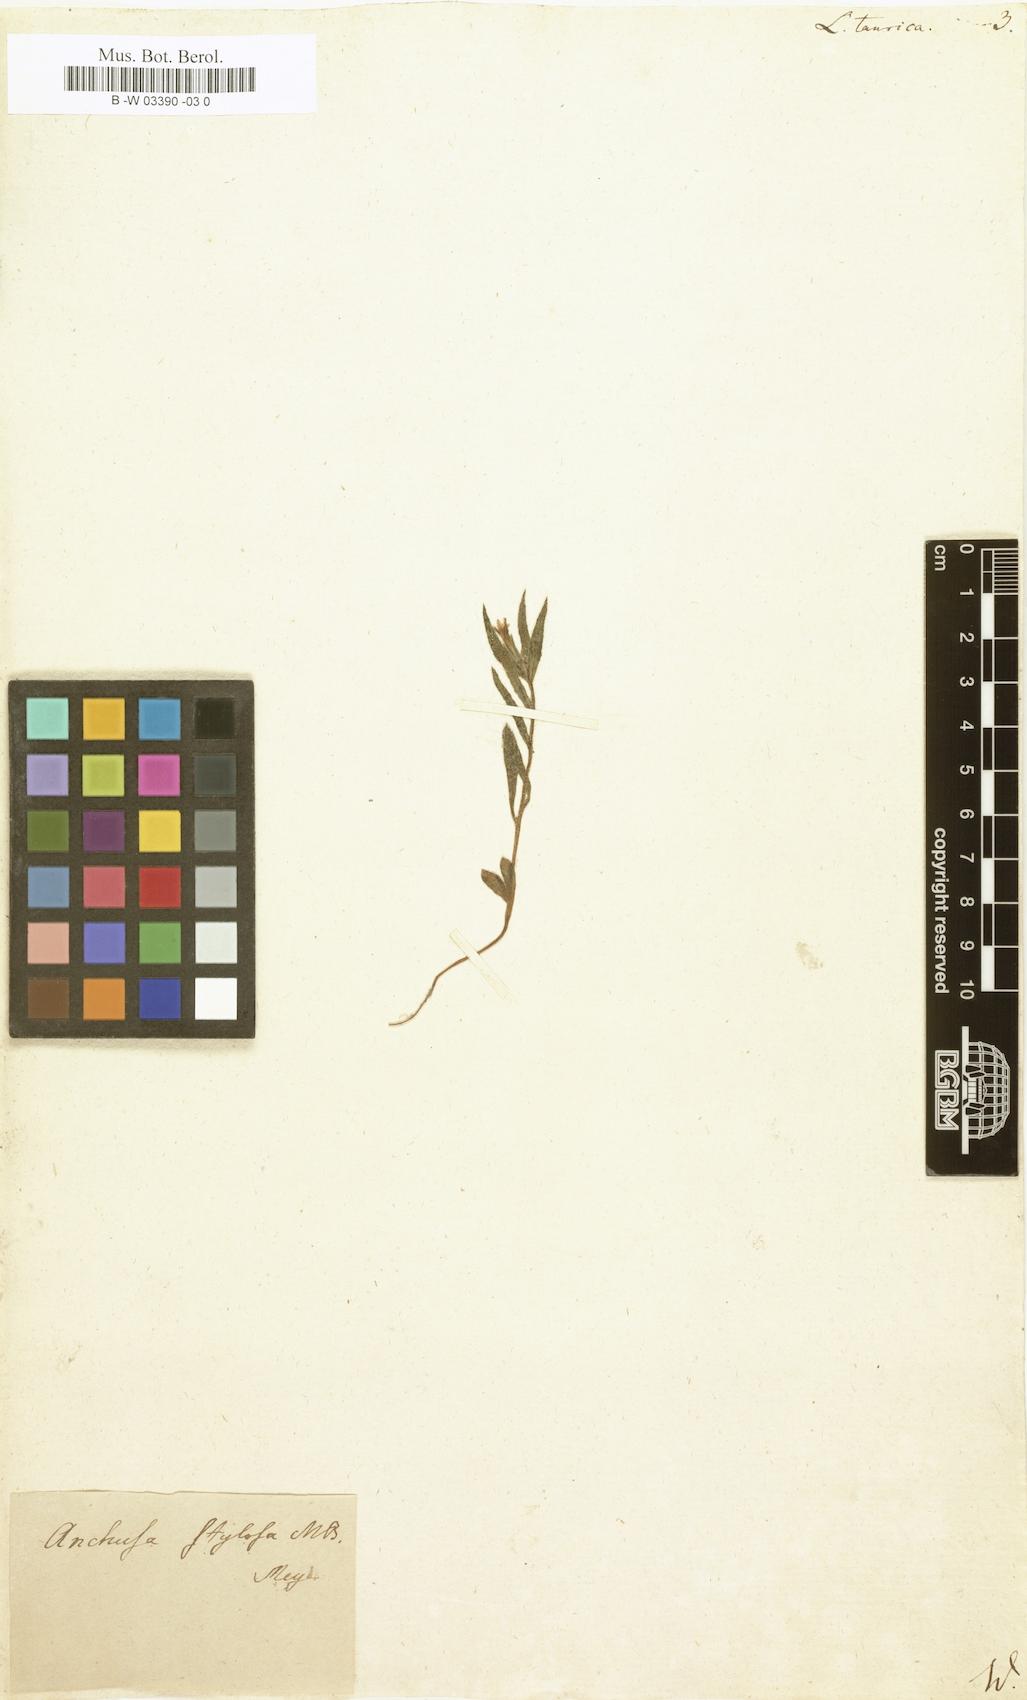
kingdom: Plantae
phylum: Tracheophyta
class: Magnoliopsida
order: Boraginales
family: Boraginaceae
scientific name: Boraginaceae
